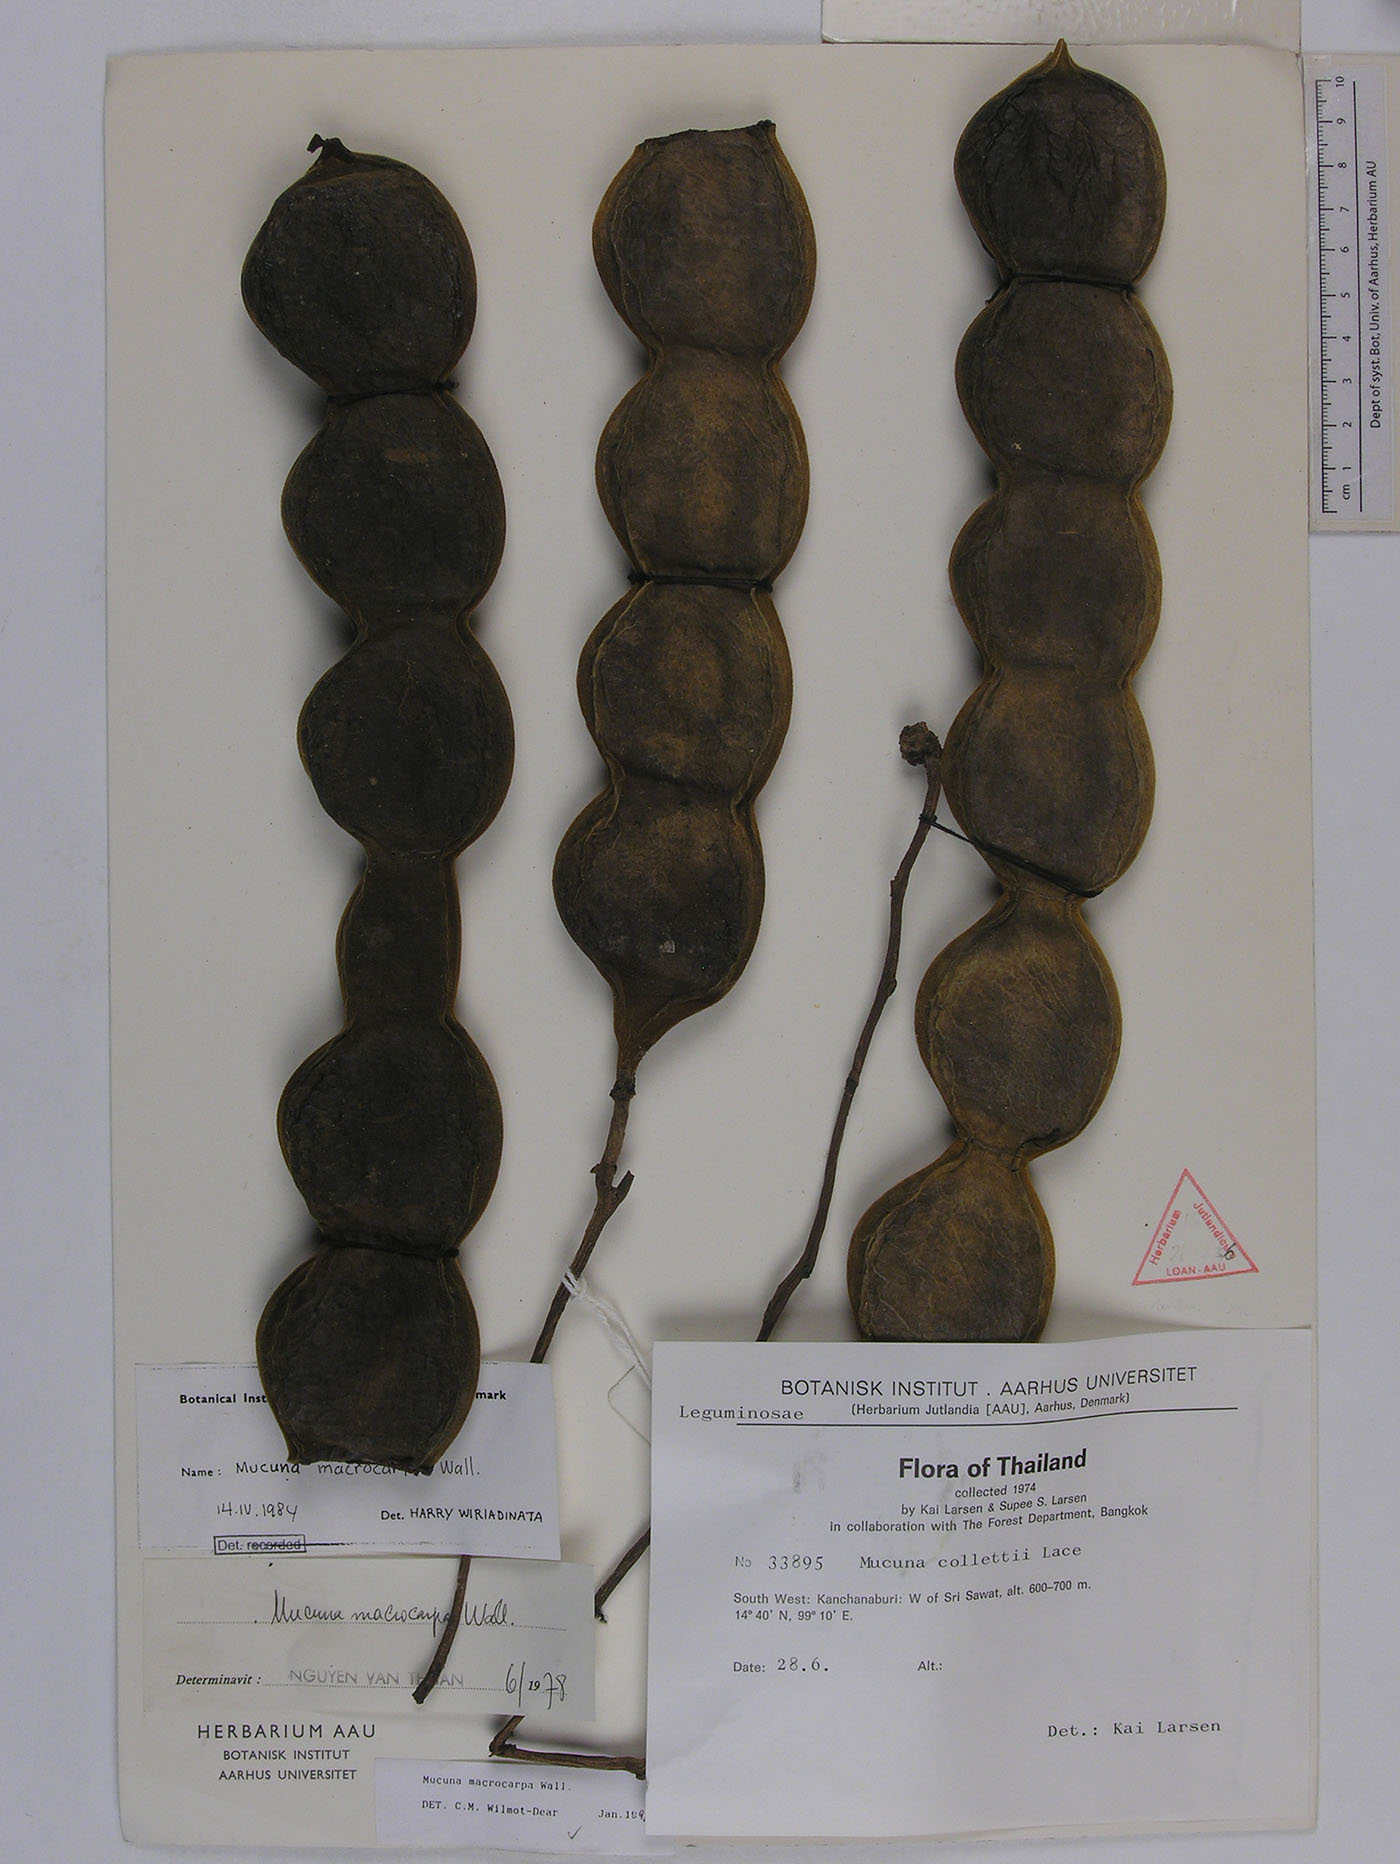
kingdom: Plantae
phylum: Tracheophyta
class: Magnoliopsida
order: Fabales
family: Fabaceae
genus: Mucuna
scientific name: Mucuna macrocarpa
